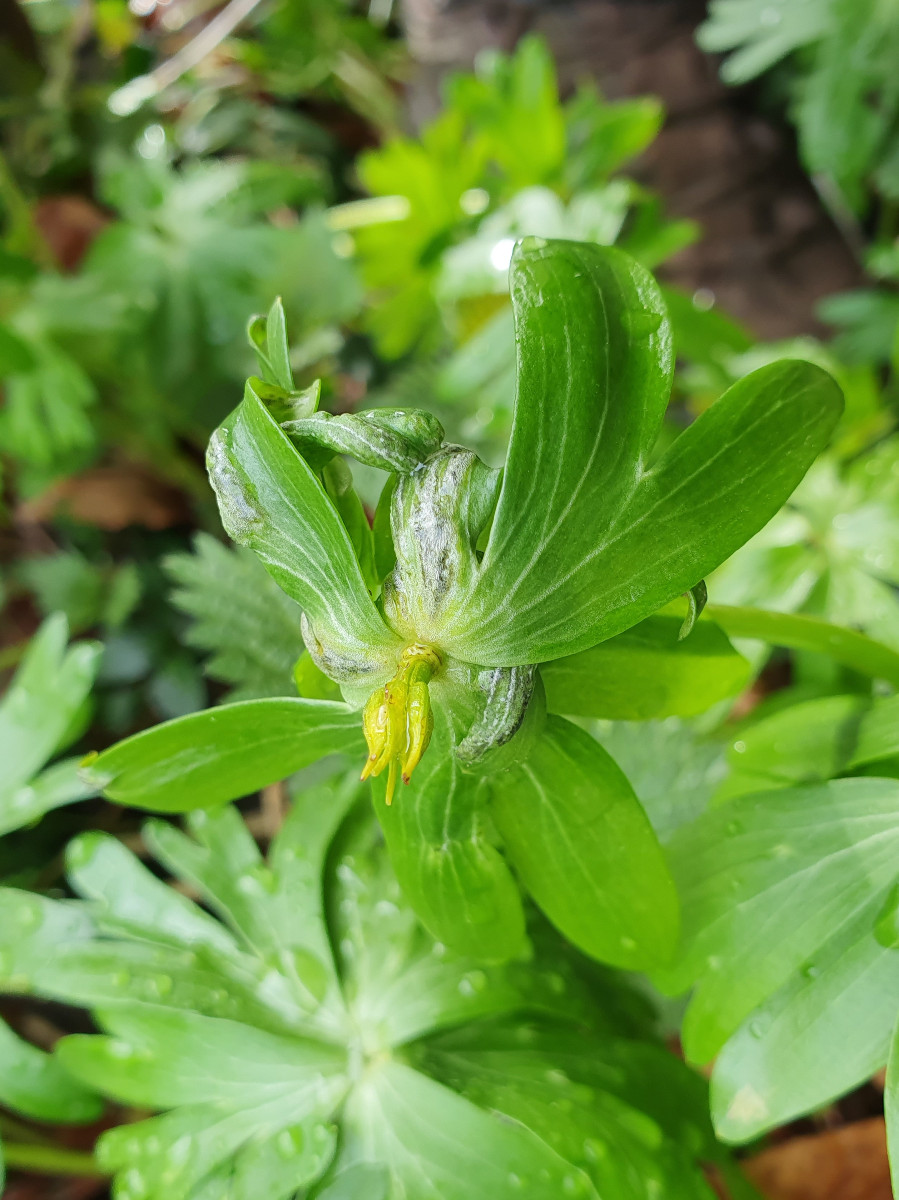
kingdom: Fungi
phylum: Basidiomycota
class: Ustilaginomycetes
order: Urocystidales
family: Urocystidaceae
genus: Urocystis
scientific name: Urocystis eranthidis
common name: erantis-brand
